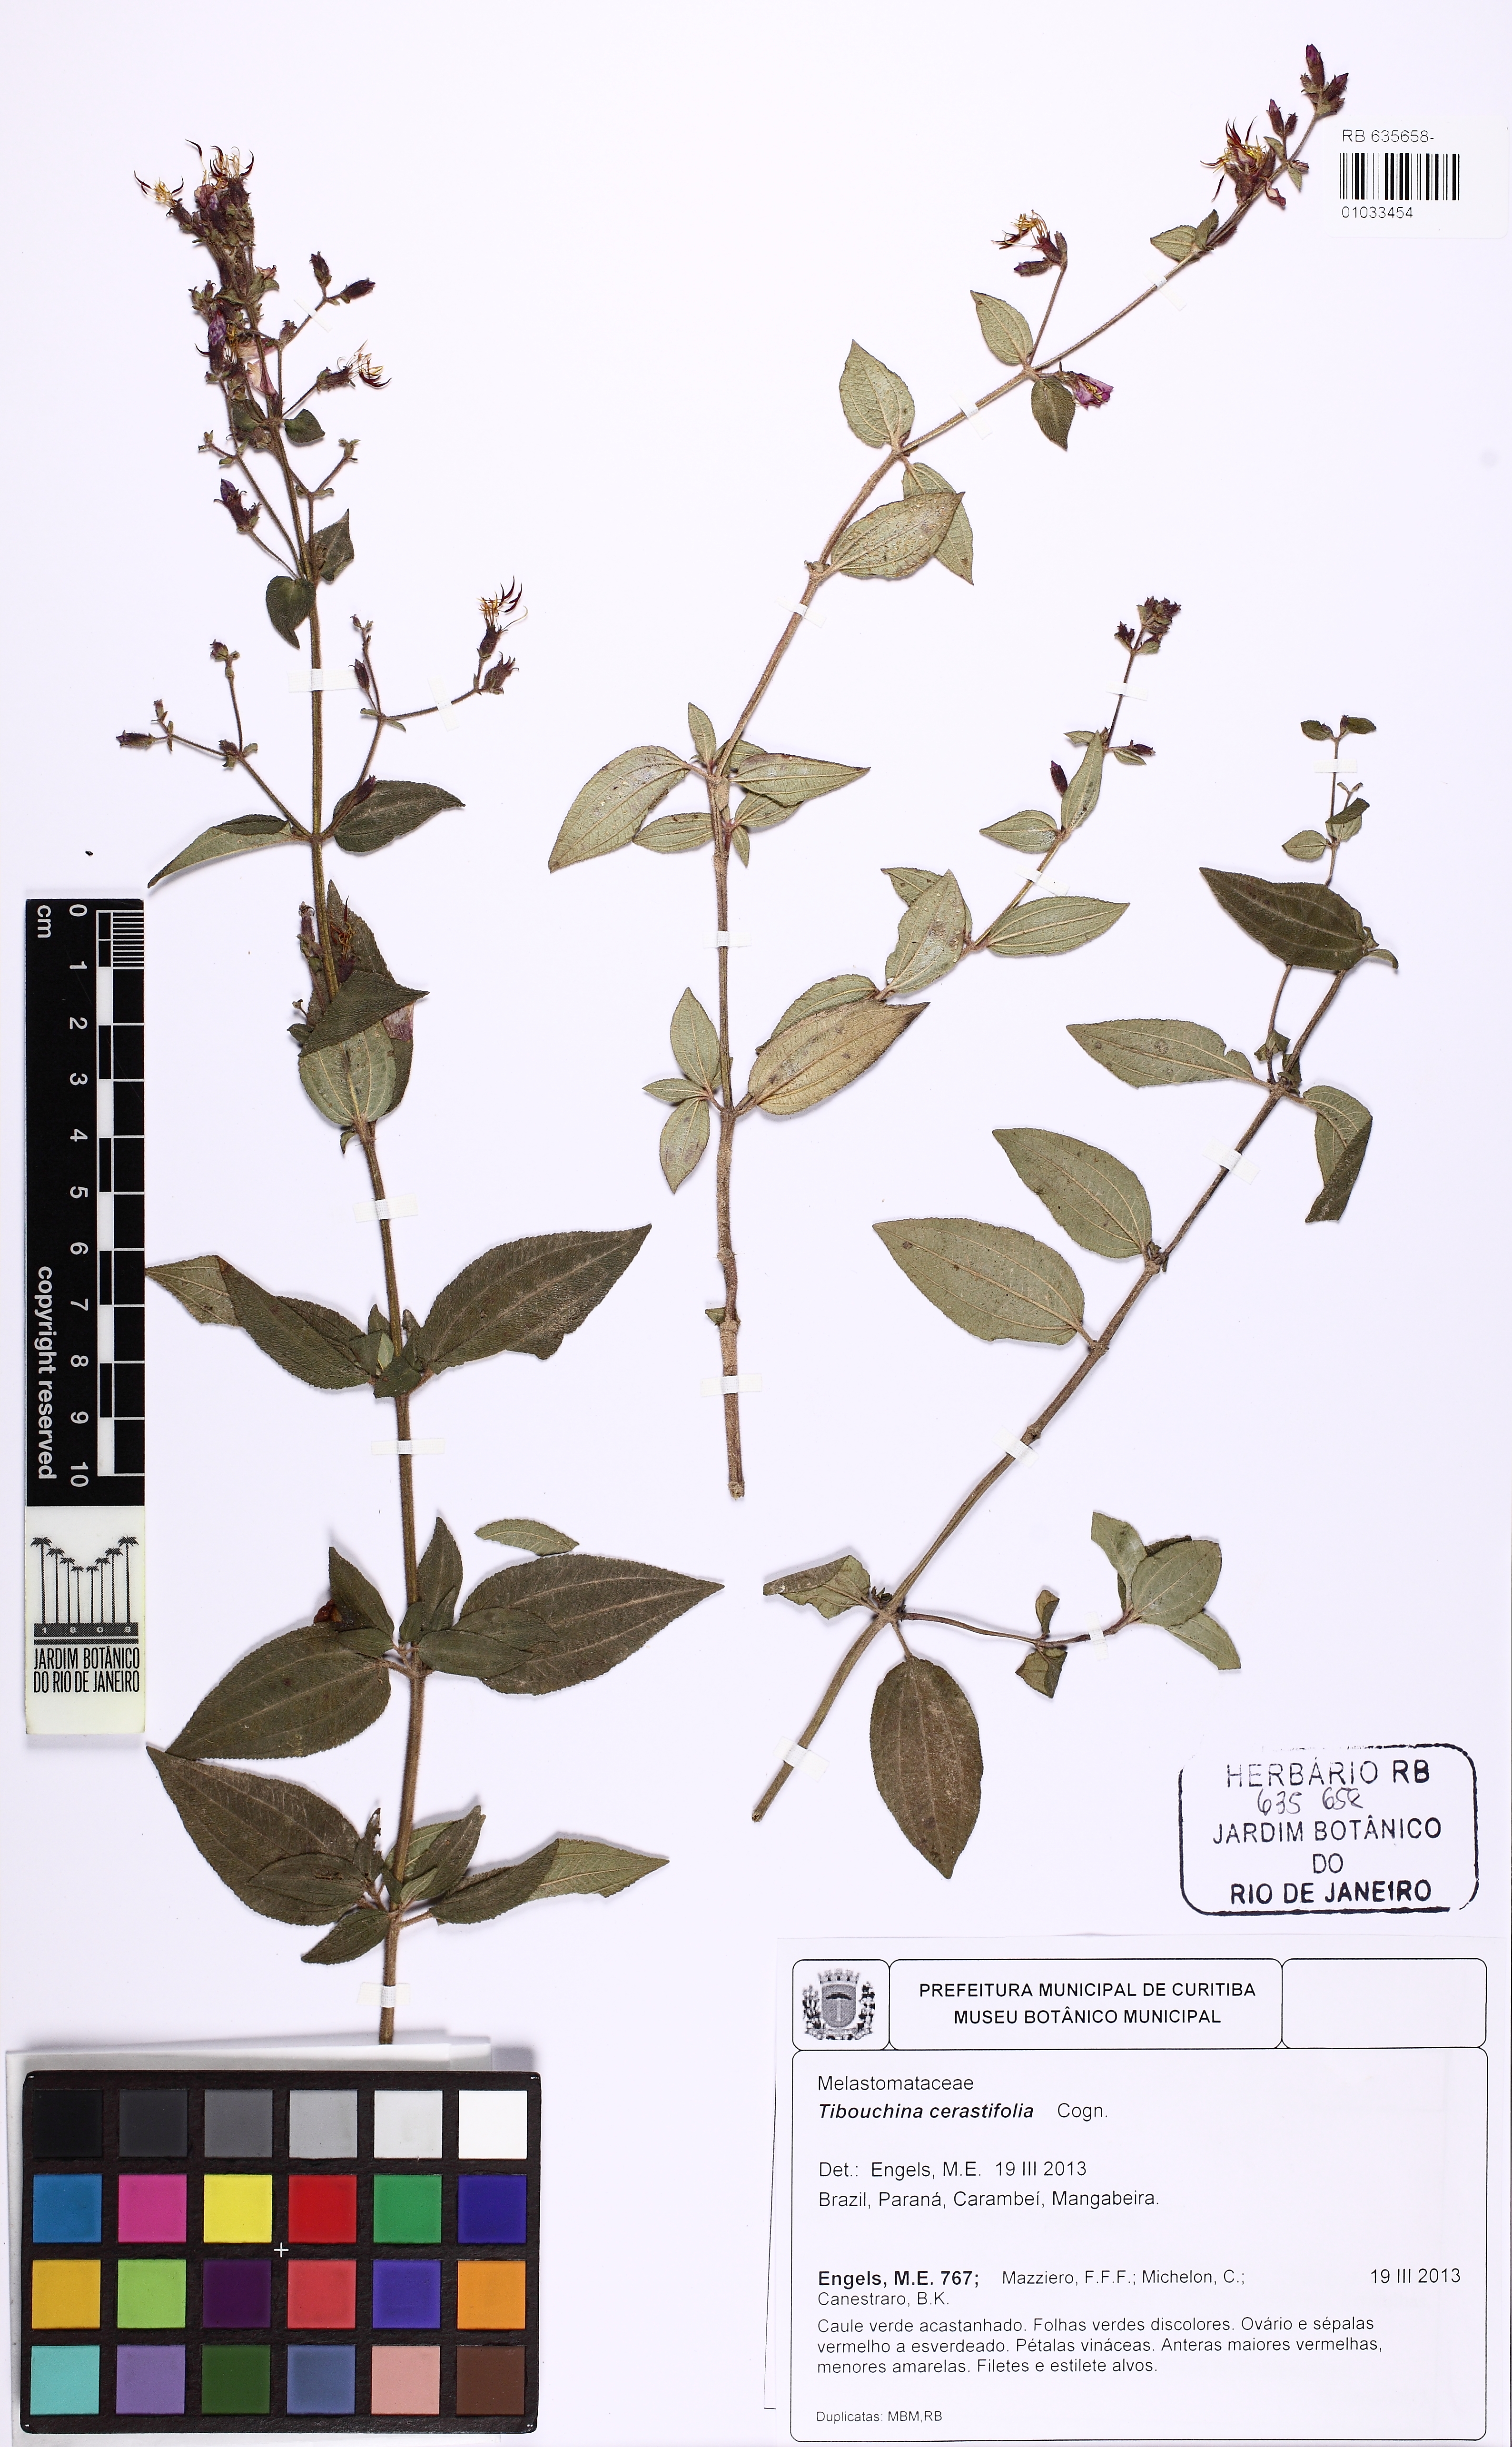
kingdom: Plantae
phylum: Tracheophyta
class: Magnoliopsida
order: Myrtales
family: Melastomataceae
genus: Chaetogastra
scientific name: Chaetogastra cerastifolia
